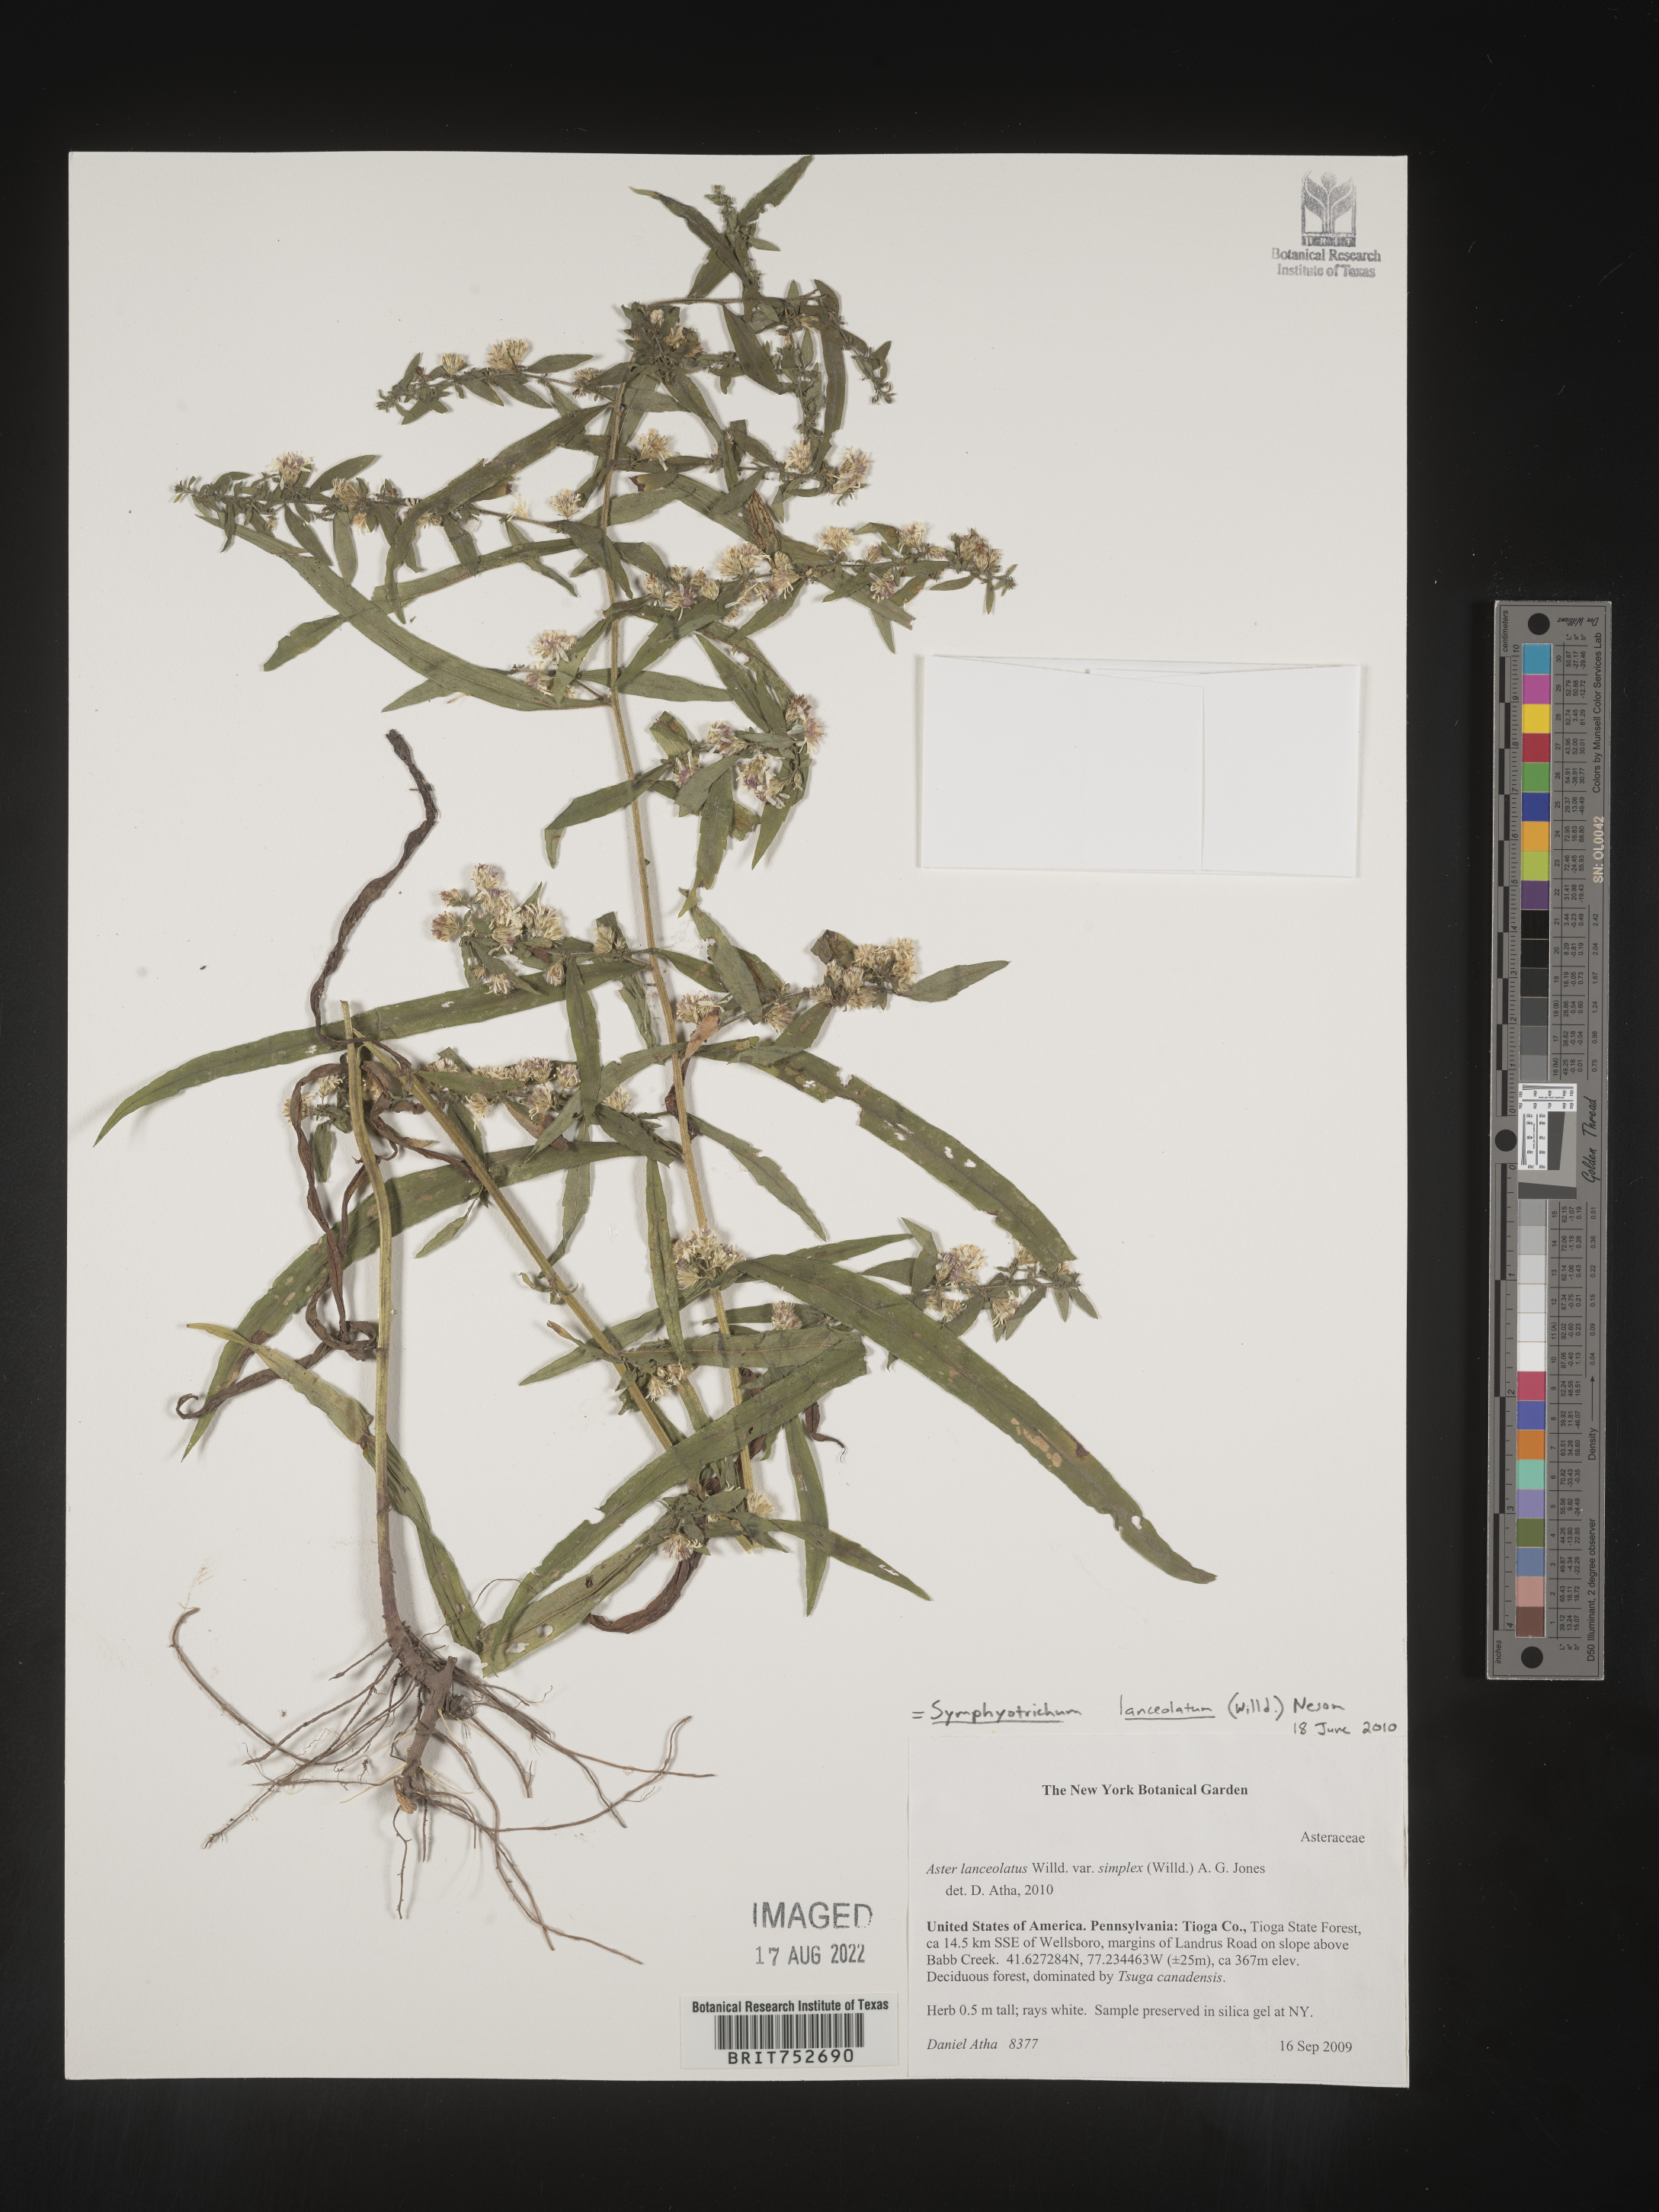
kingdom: Plantae
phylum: Tracheophyta
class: Magnoliopsida
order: Asterales
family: Asteraceae
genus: Symphyotrichum
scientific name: Symphyotrichum lanceolatum
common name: Panicled aster
